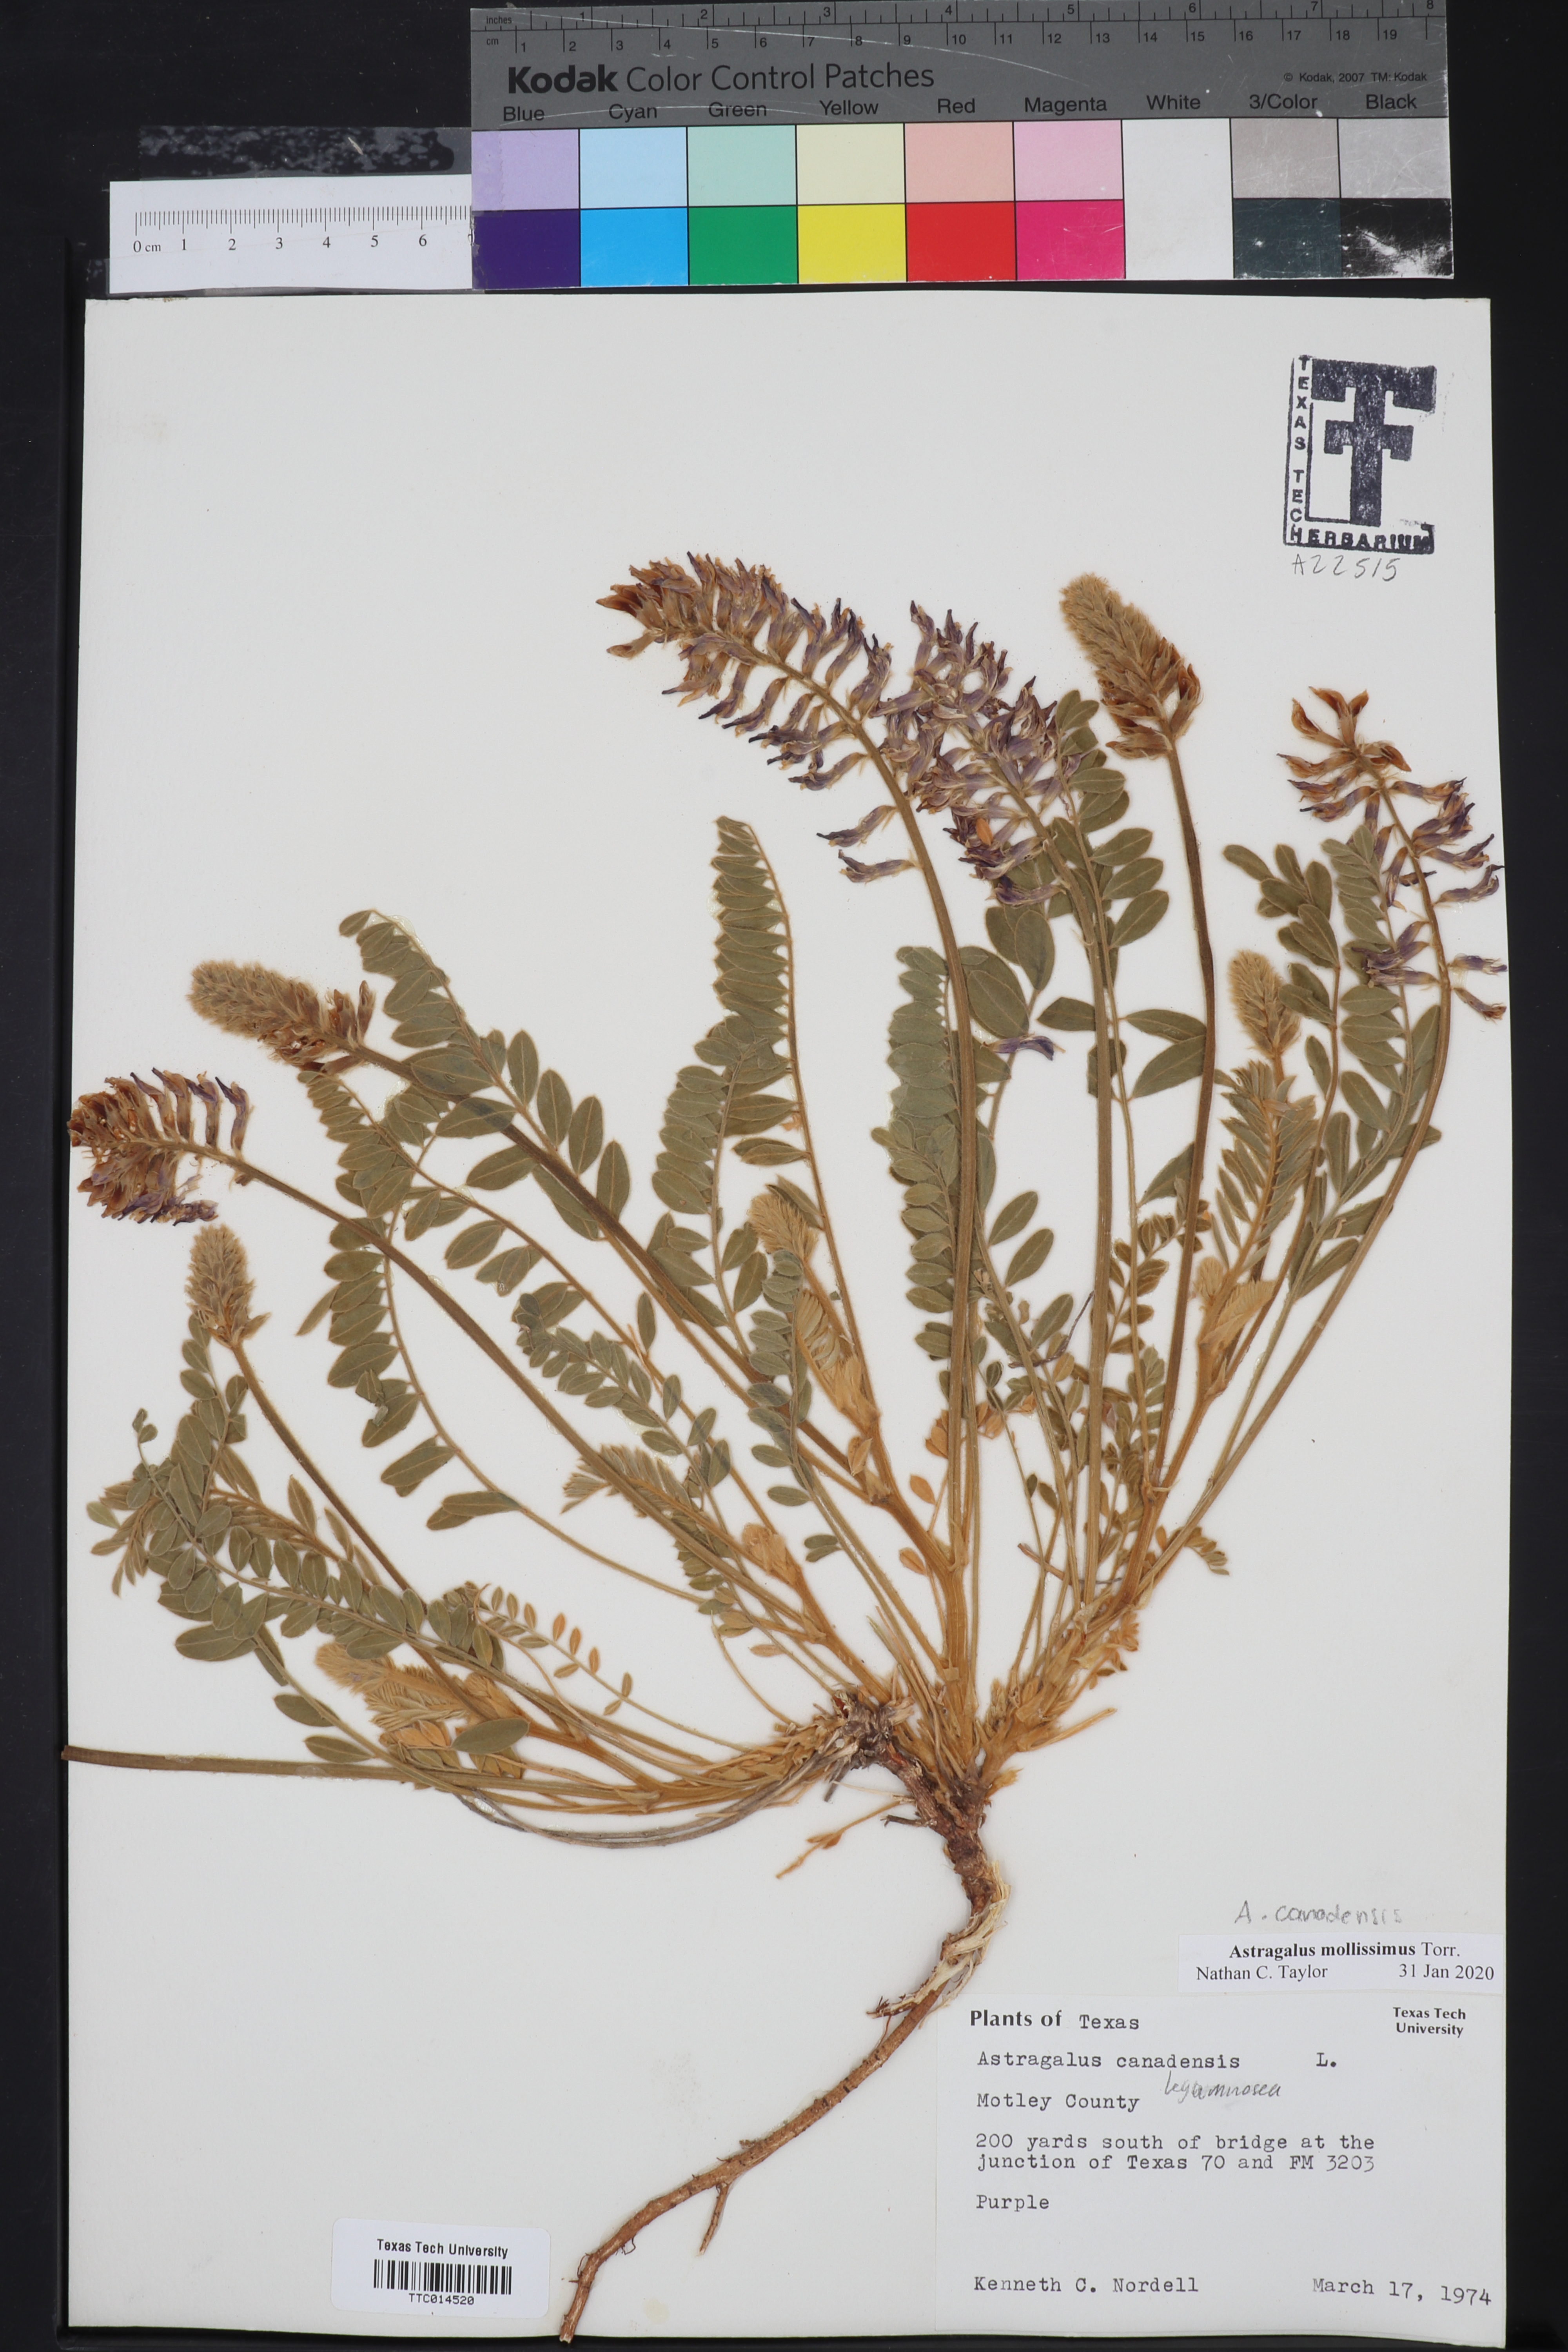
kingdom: Plantae
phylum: Tracheophyta
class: Magnoliopsida
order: Fabales
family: Fabaceae
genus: Astragalus
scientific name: Astragalus mollissimus
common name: Woolly locoweed
